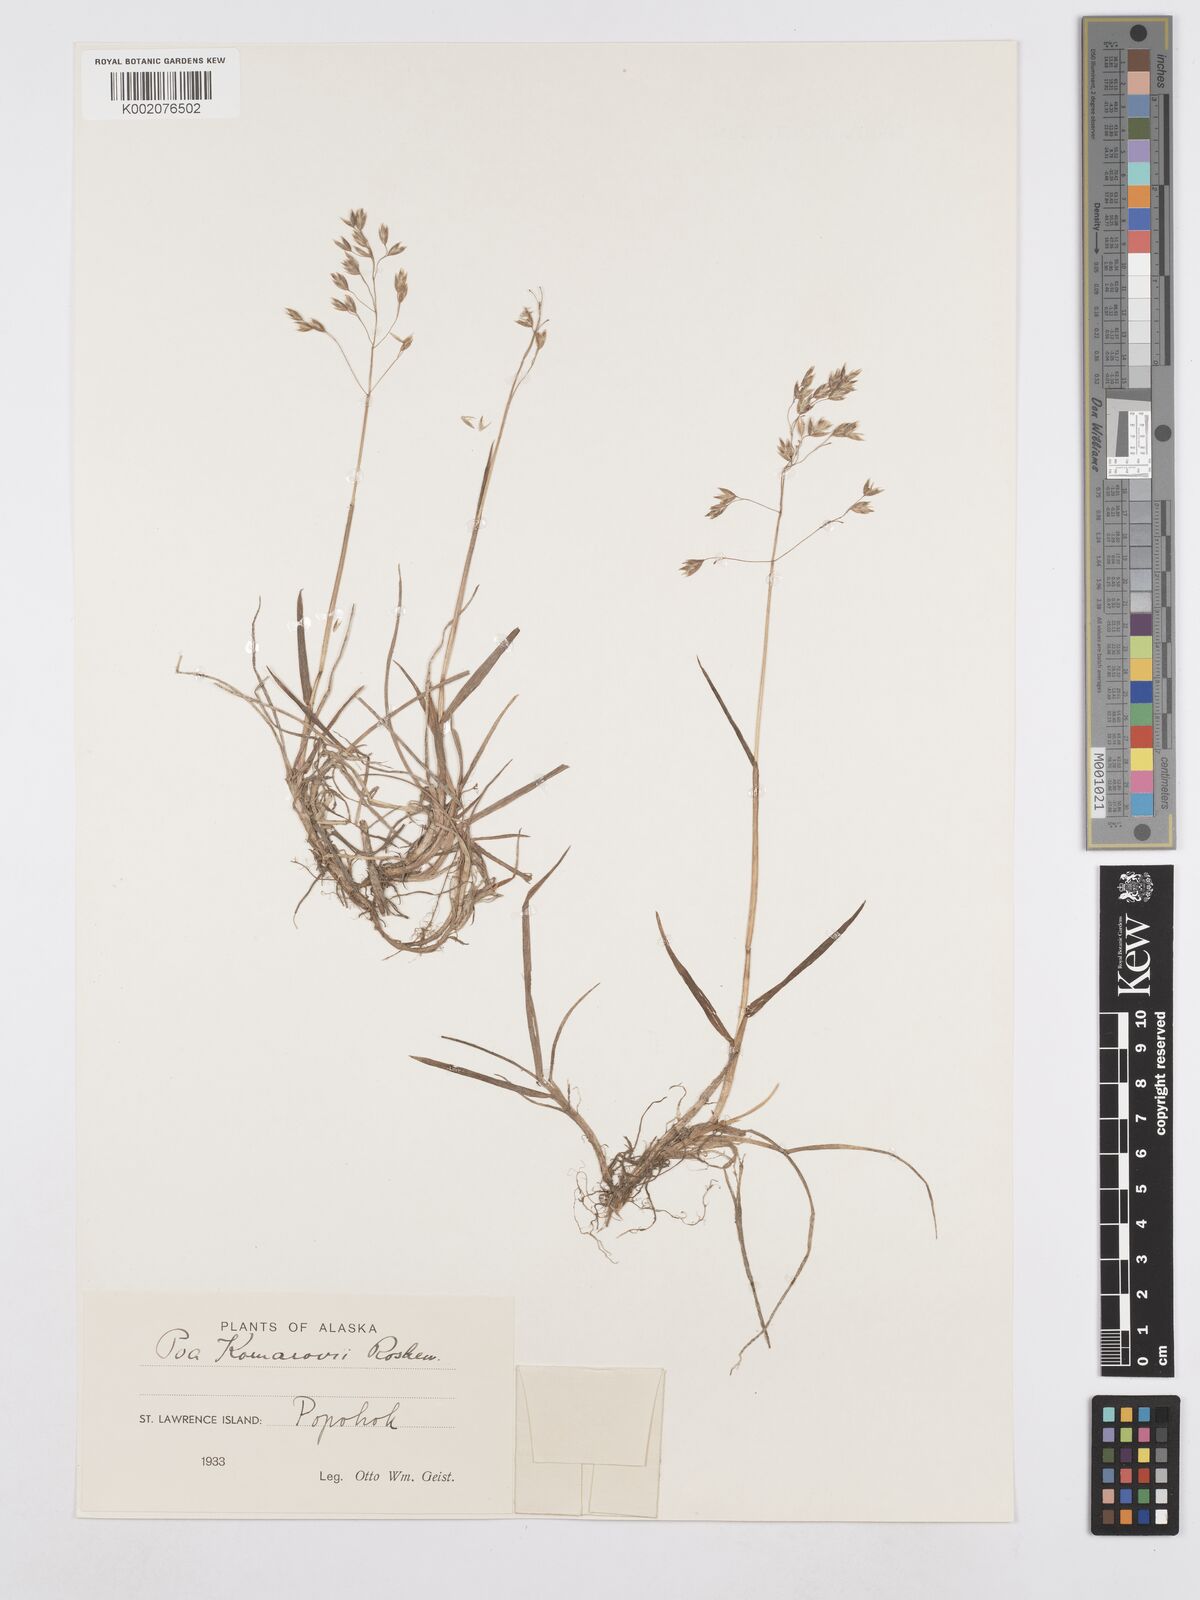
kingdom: Plantae
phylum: Tracheophyta
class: Liliopsida
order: Poales
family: Poaceae
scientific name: Poaceae
